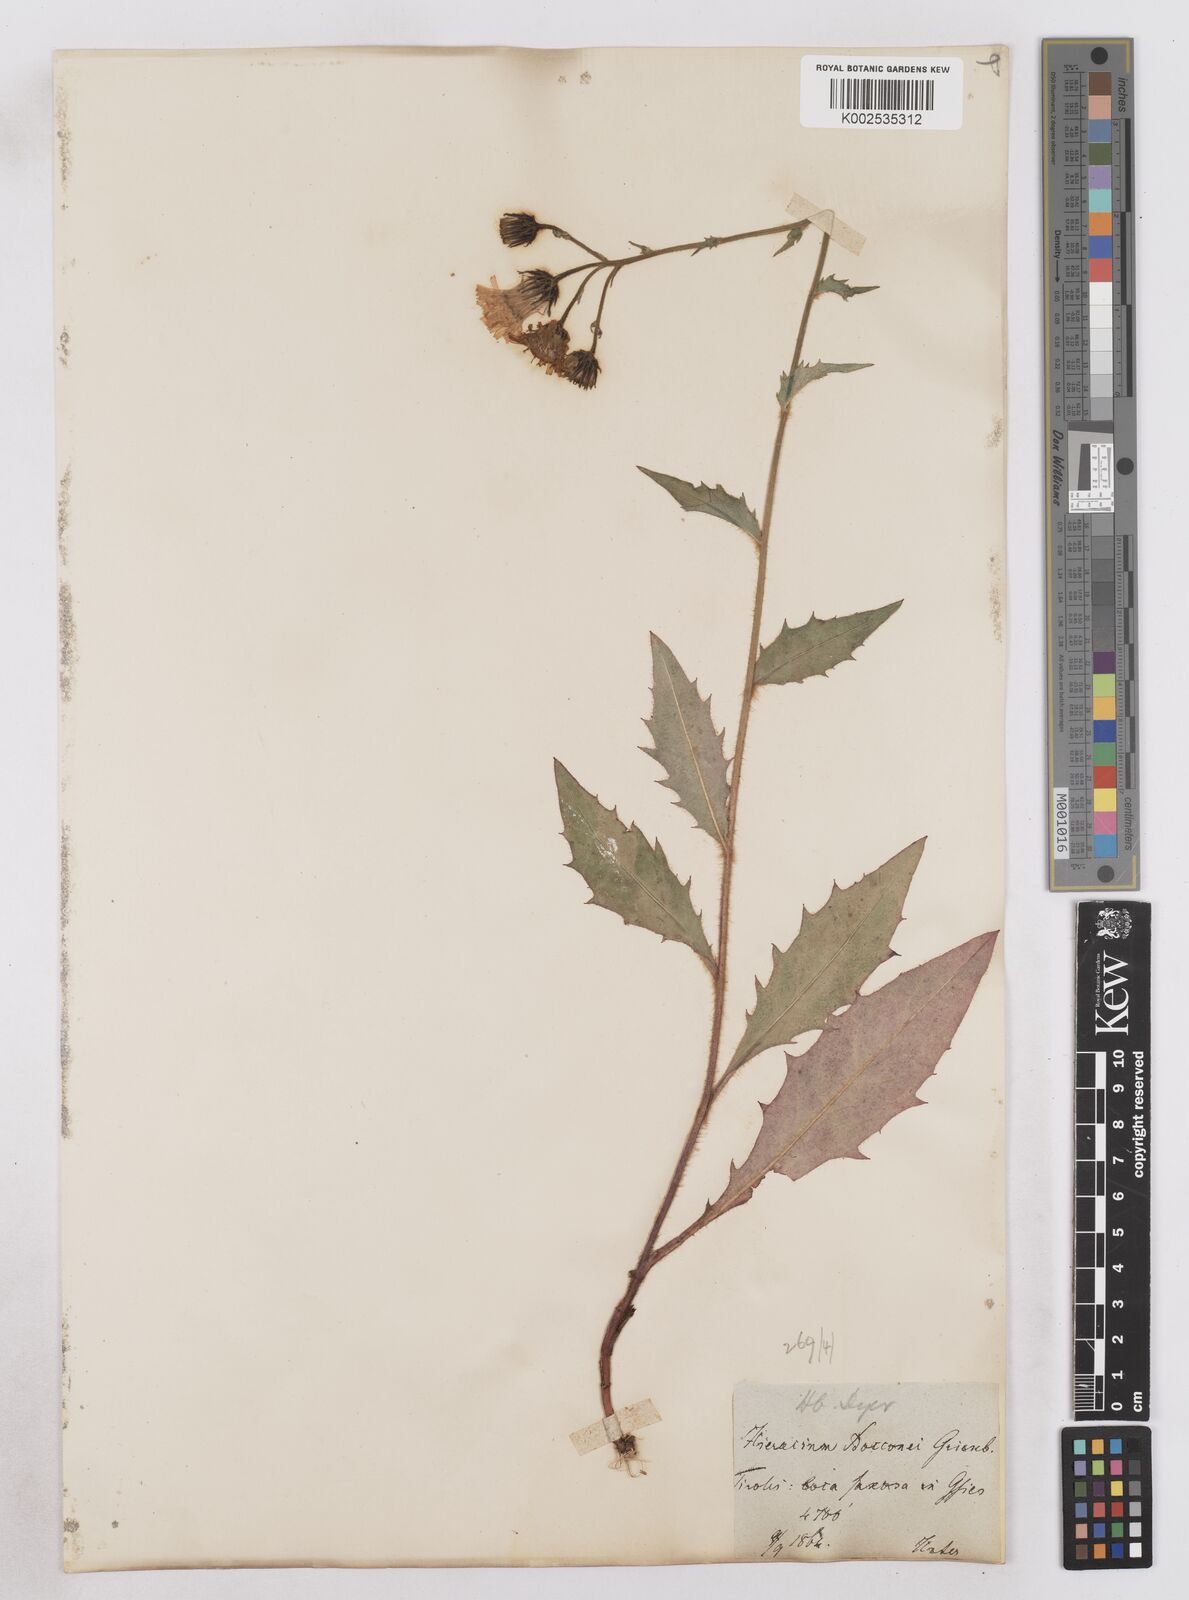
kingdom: Plantae
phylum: Tracheophyta
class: Magnoliopsida
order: Asterales
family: Asteraceae
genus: Hieracium
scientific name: Hieracium simia
